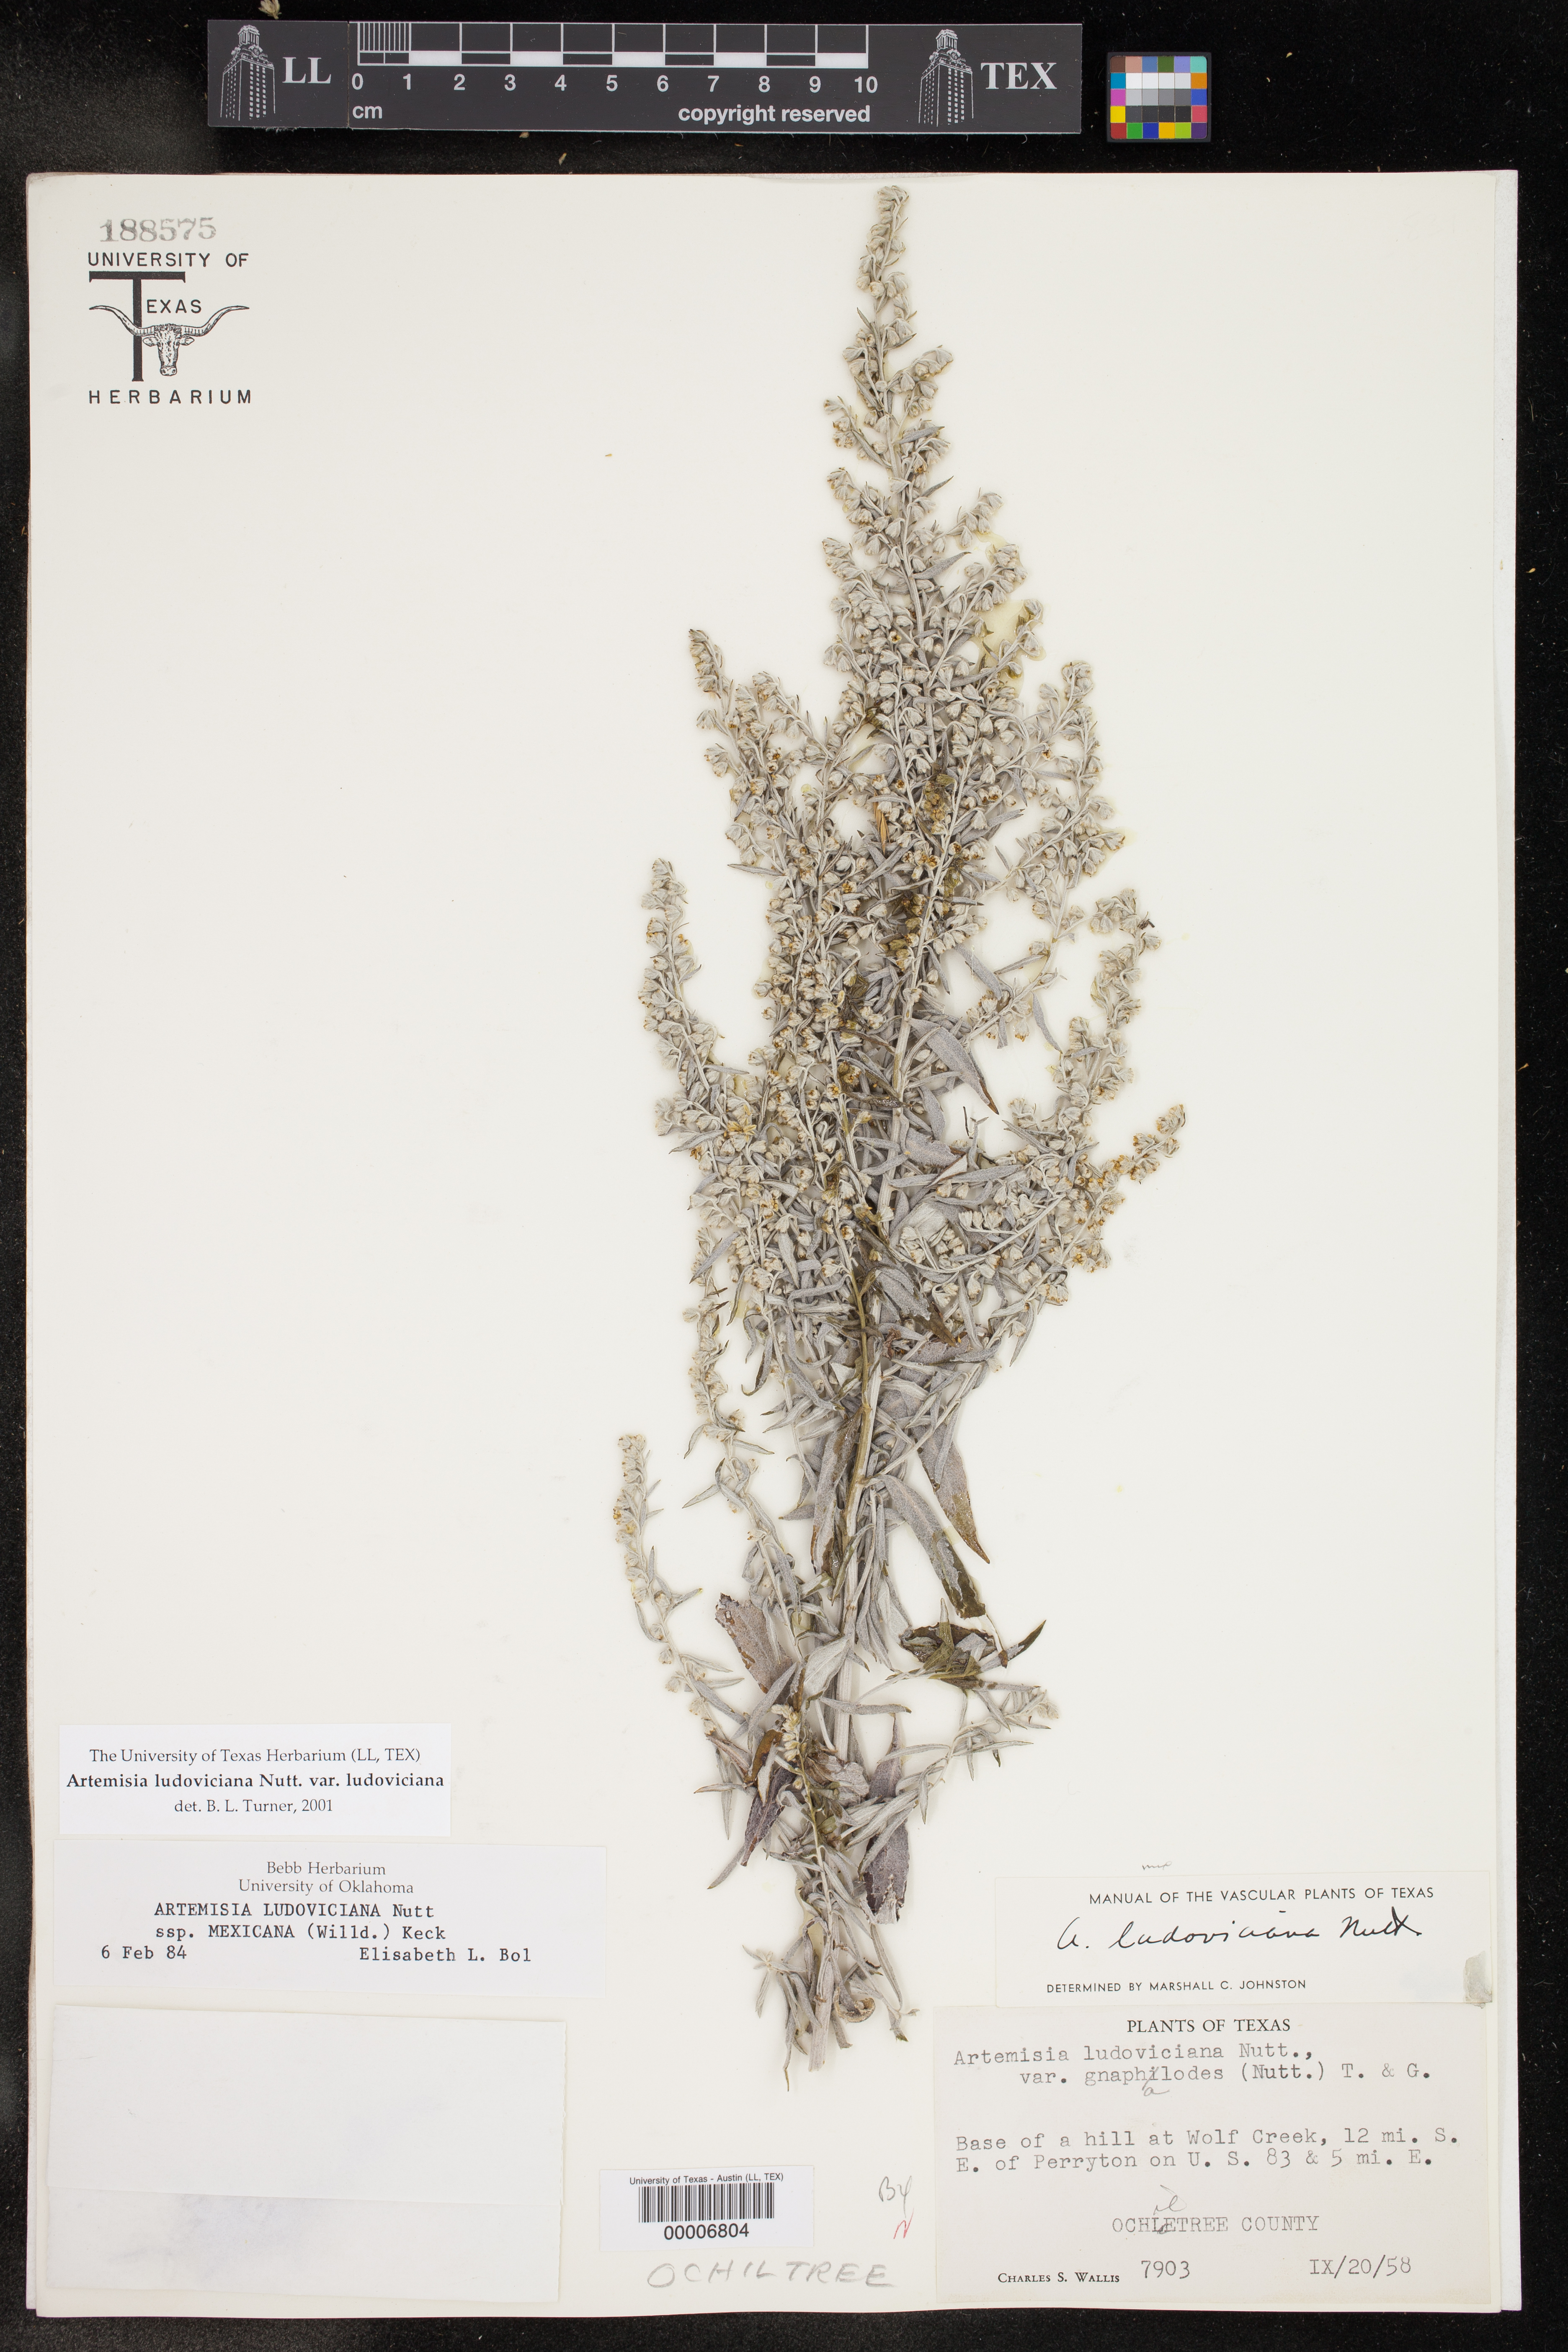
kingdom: Plantae
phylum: Tracheophyta
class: Magnoliopsida
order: Asterales
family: Asteraceae
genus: Artemisia
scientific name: Artemisia ludoviciana
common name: Western mugwort
